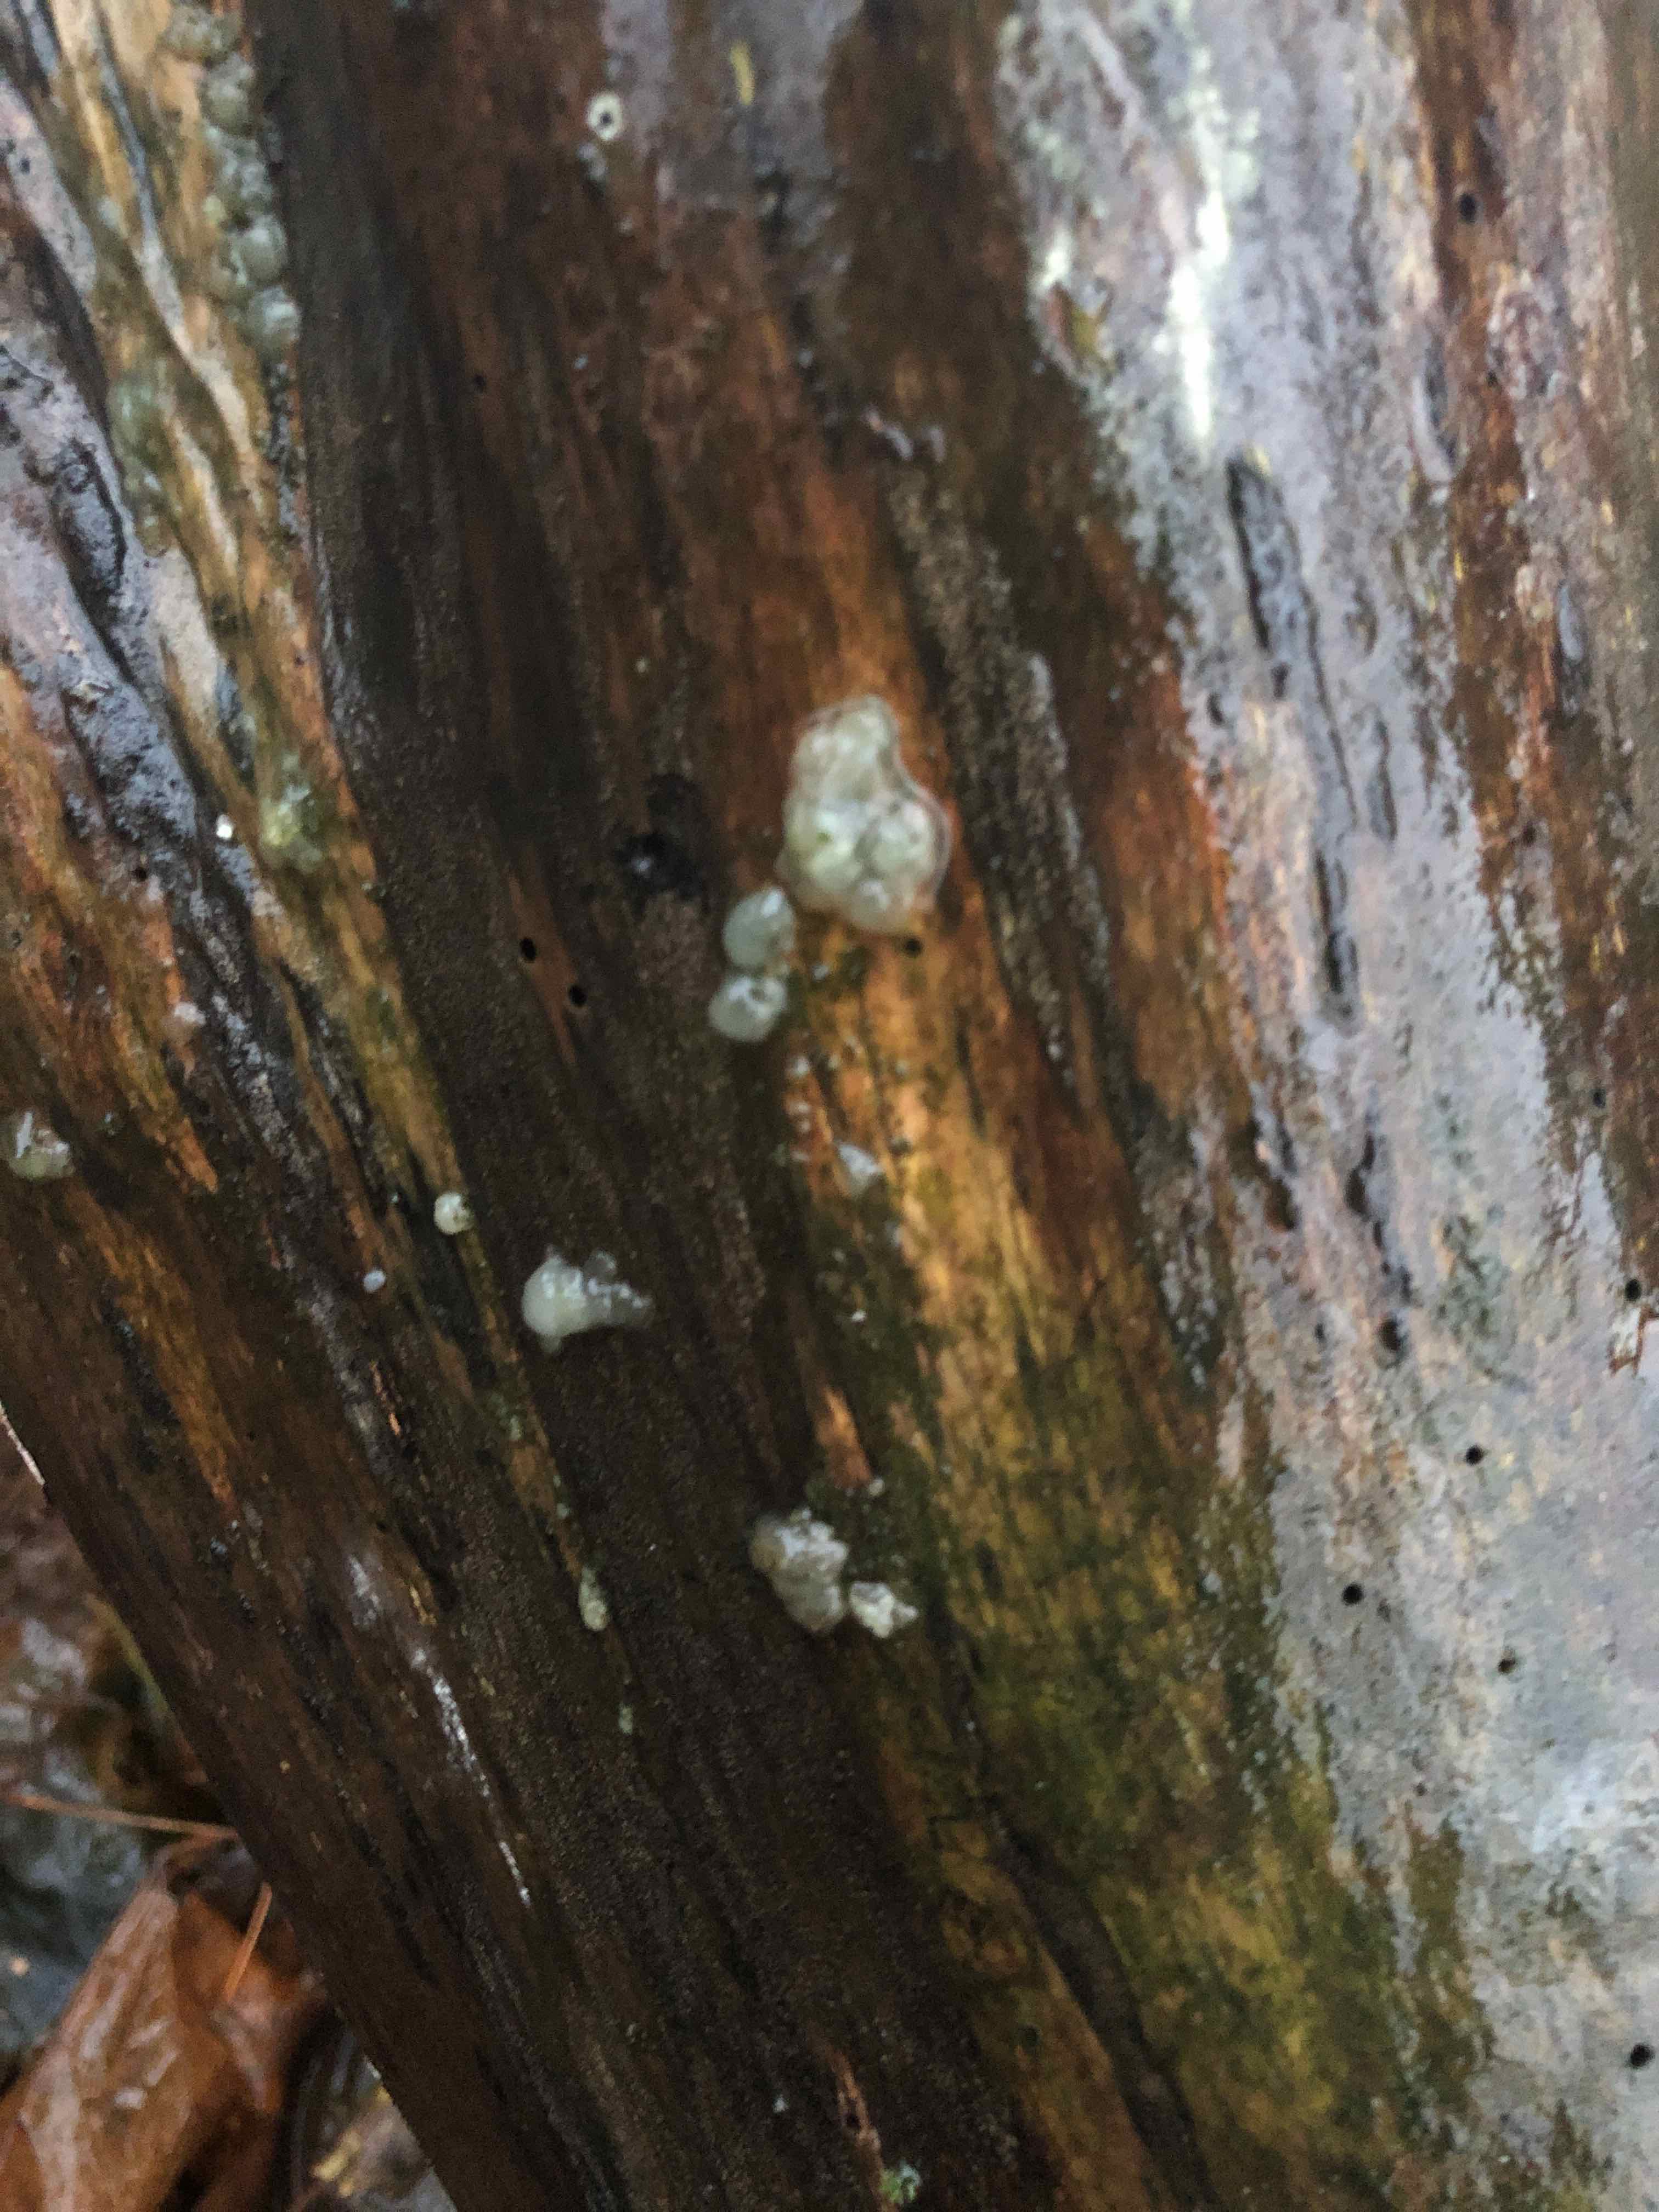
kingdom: Fungi
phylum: Basidiomycota
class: Agaricomycetes
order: Auriculariales
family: Hyaloriaceae
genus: Myxarium
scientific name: Myxarium nucleatum
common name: klar bævretop
